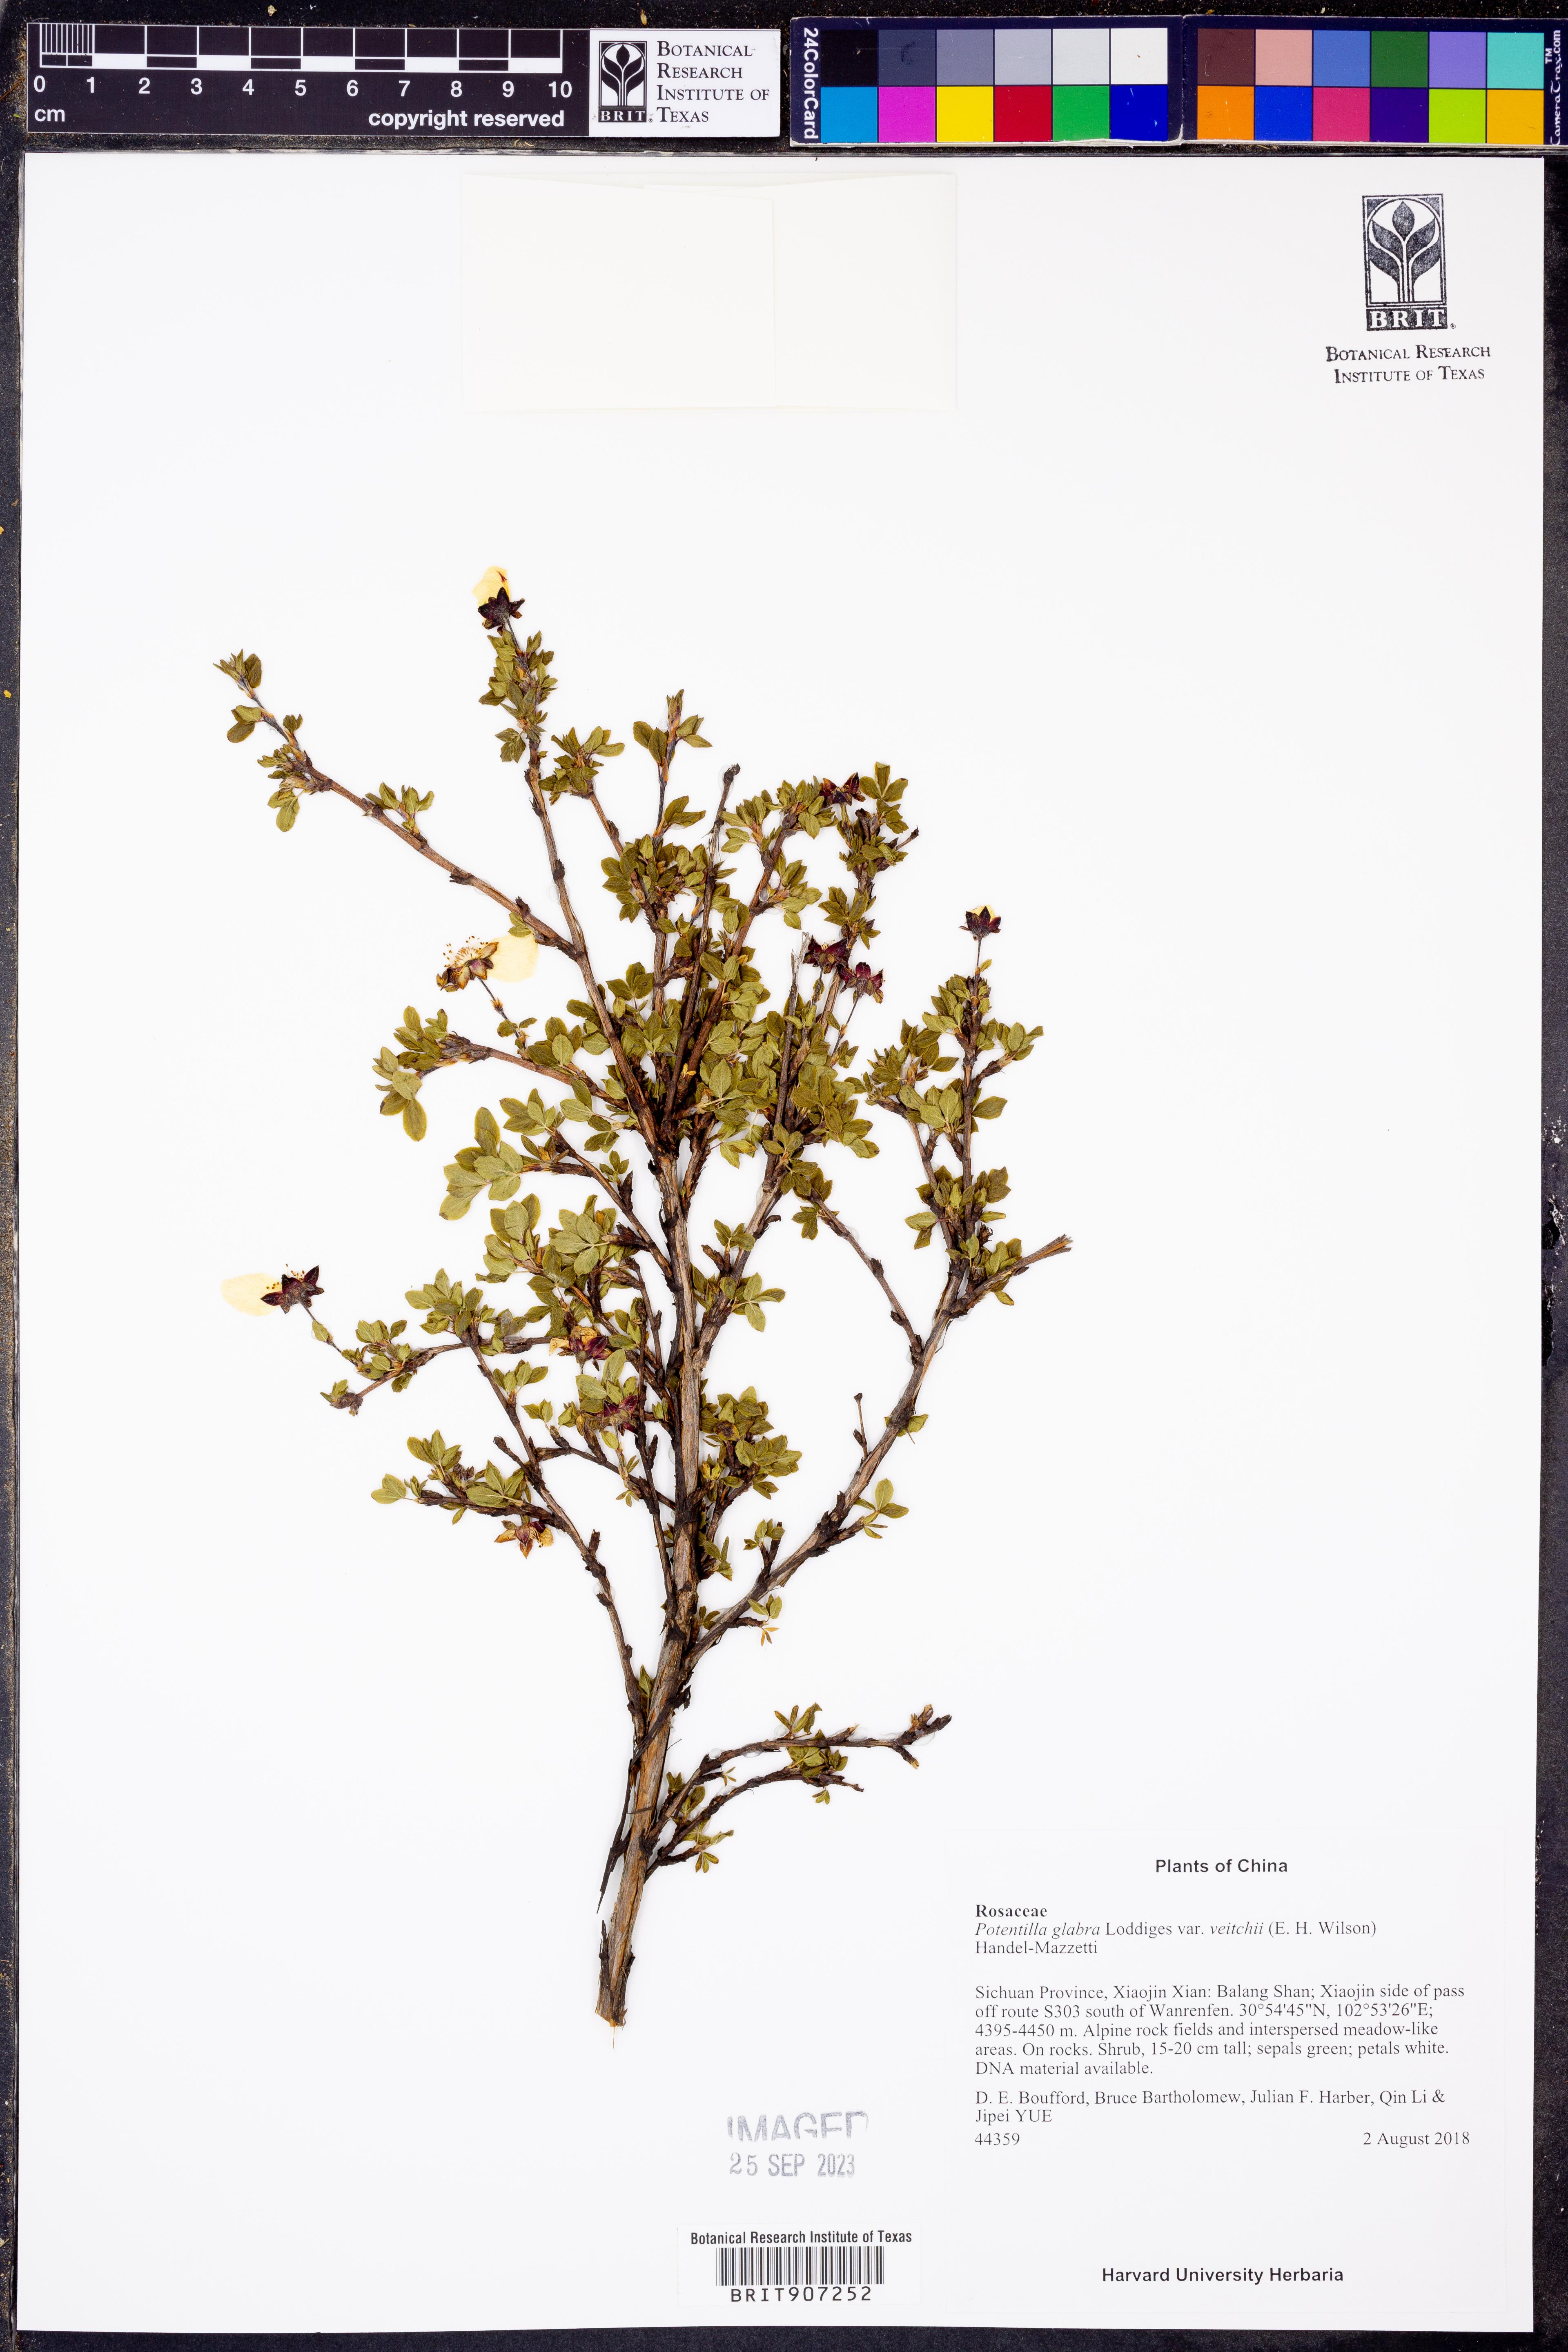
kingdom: Plantae
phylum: Tracheophyta
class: Magnoliopsida
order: Rosales
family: Rosaceae
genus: Dasiphora
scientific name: Dasiphora veitchii
